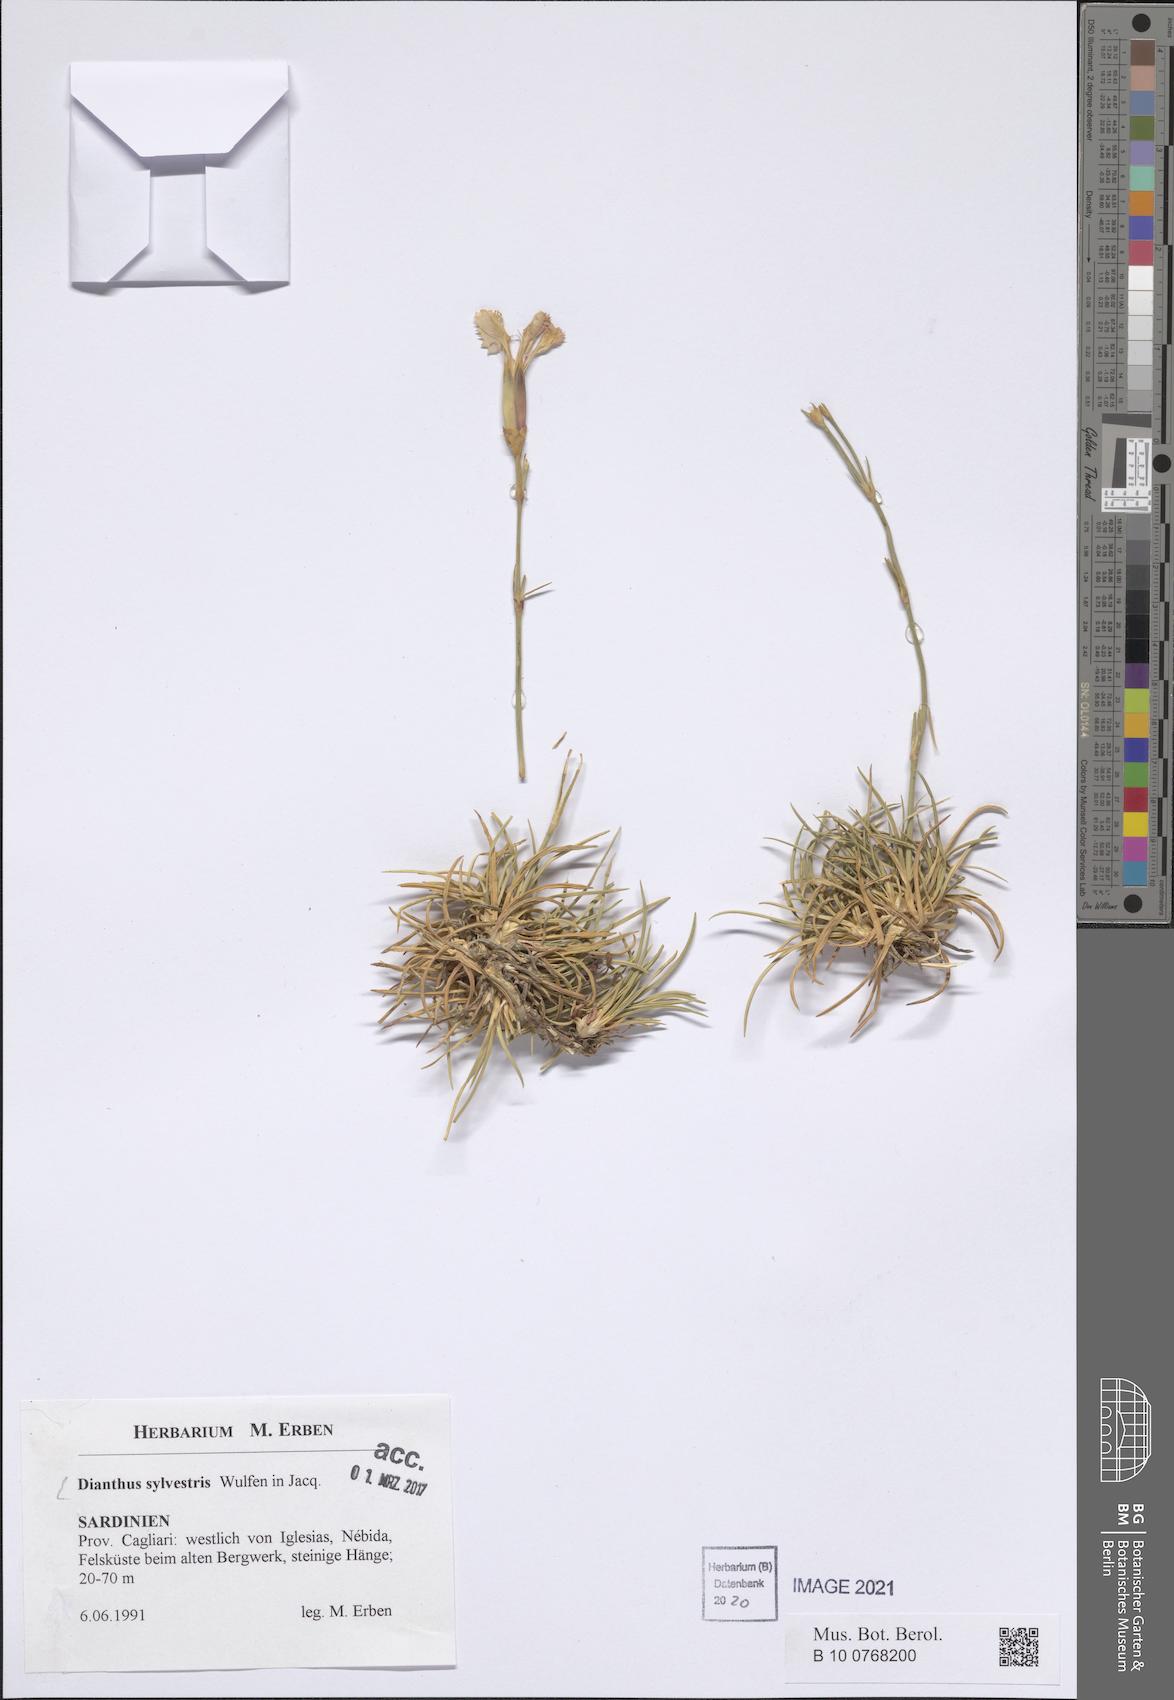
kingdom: Plantae
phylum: Tracheophyta
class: Magnoliopsida
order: Caryophyllales
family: Caryophyllaceae
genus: Dianthus
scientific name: Dianthus sylvestris
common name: Wood pink
